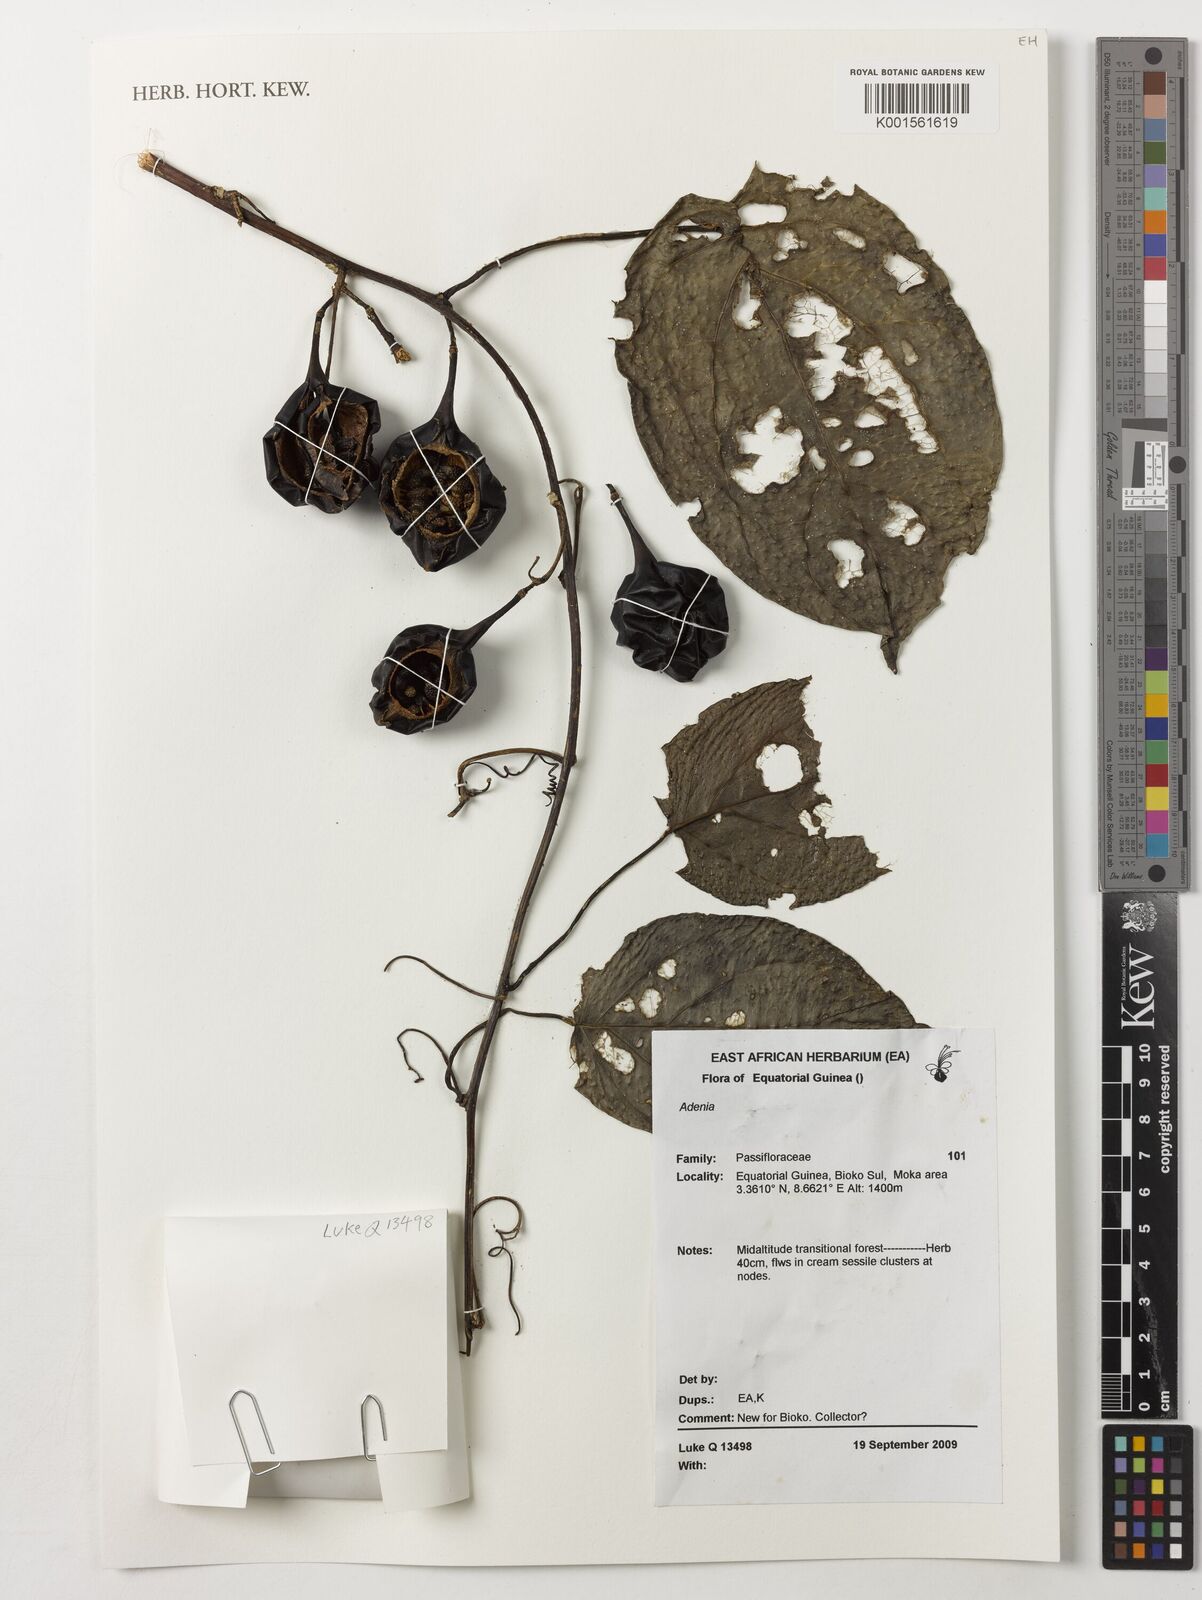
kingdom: Plantae
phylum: Tracheophyta
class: Magnoliopsida
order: Malpighiales
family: Passifloraceae
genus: Adenia
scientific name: Adenia
